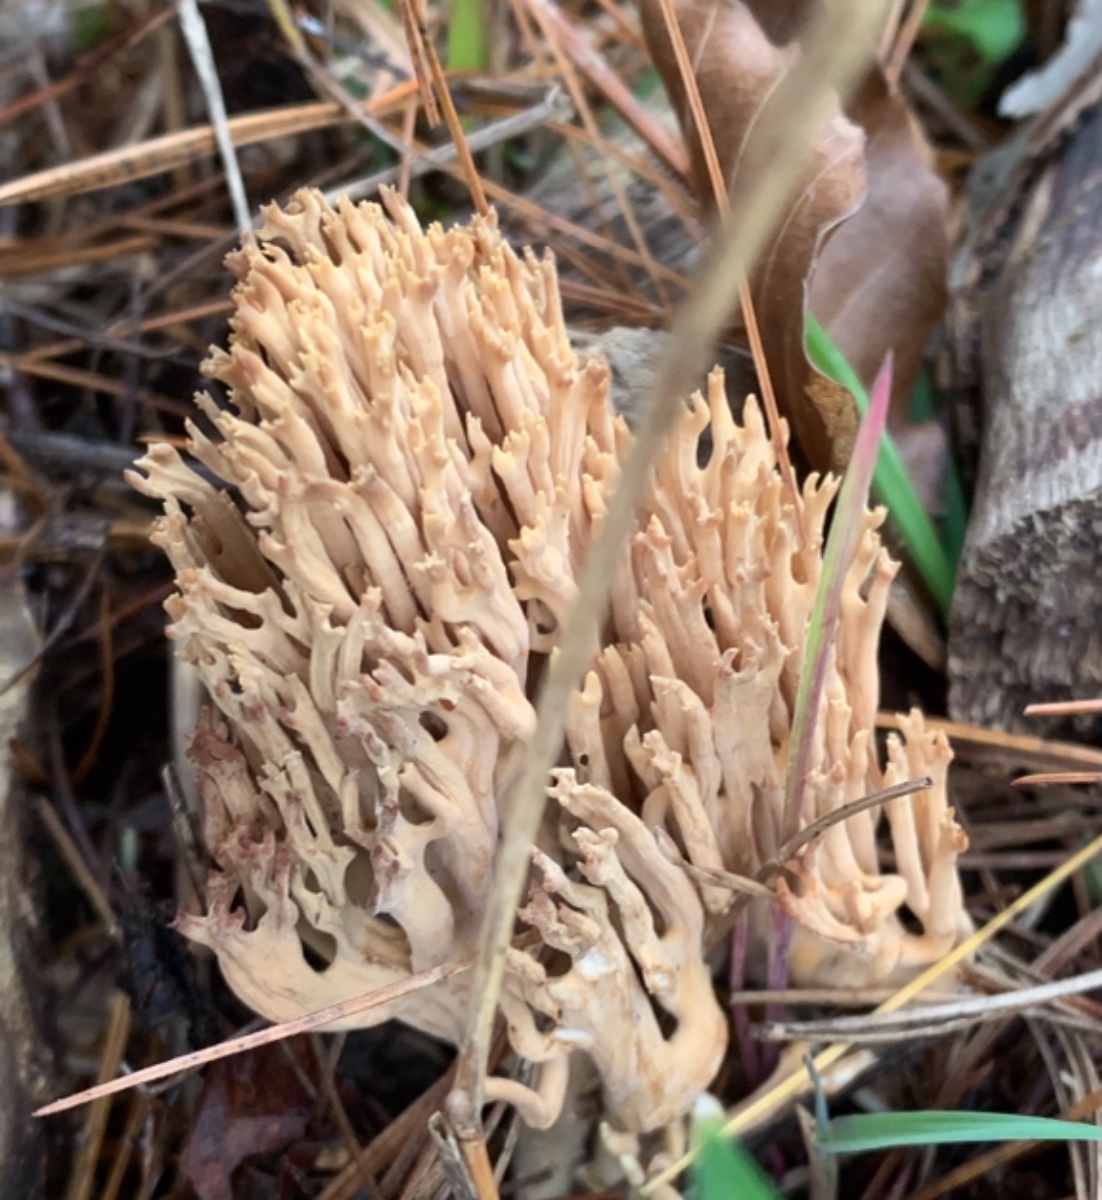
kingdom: Fungi
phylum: Basidiomycota
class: Agaricomycetes
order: Gomphales
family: Gomphaceae
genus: Ramaria
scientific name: Ramaria stricta
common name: rank koralsvamp
